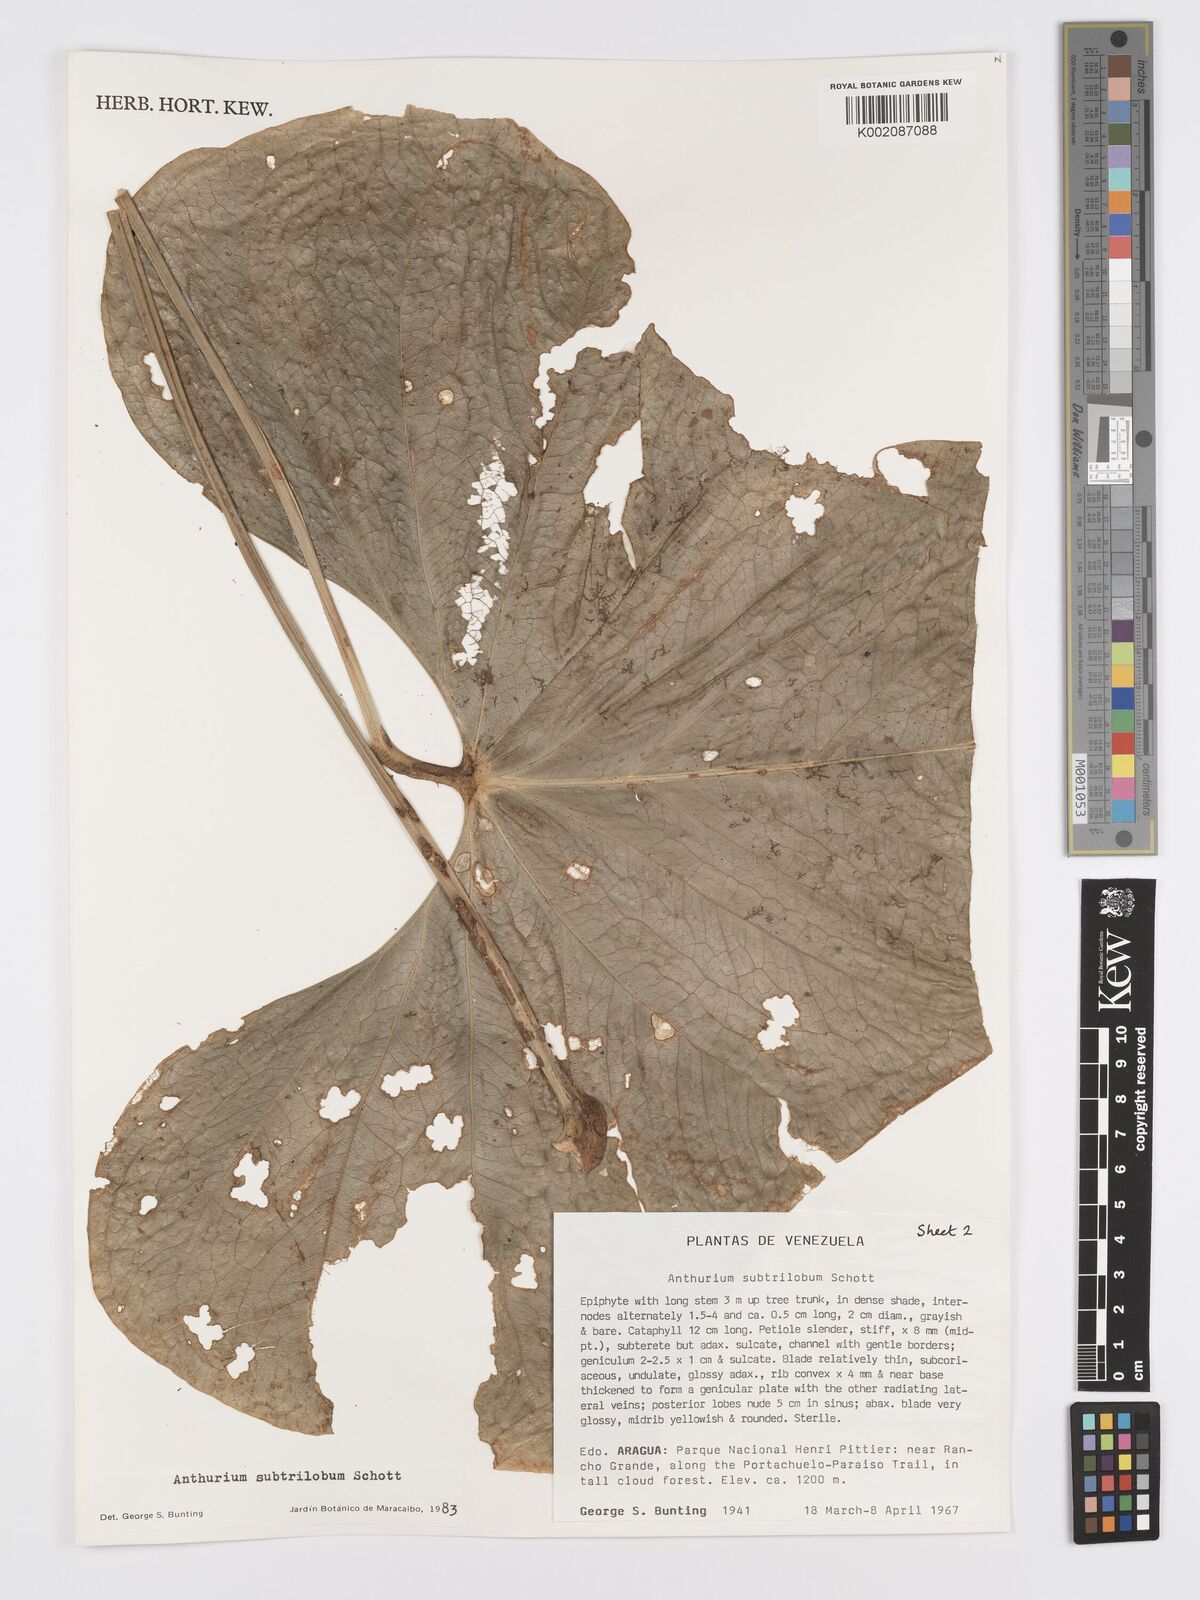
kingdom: Plantae
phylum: Tracheophyta
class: Liliopsida
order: Alismatales
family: Araceae
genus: Anthurium
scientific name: Anthurium subtrilobum
